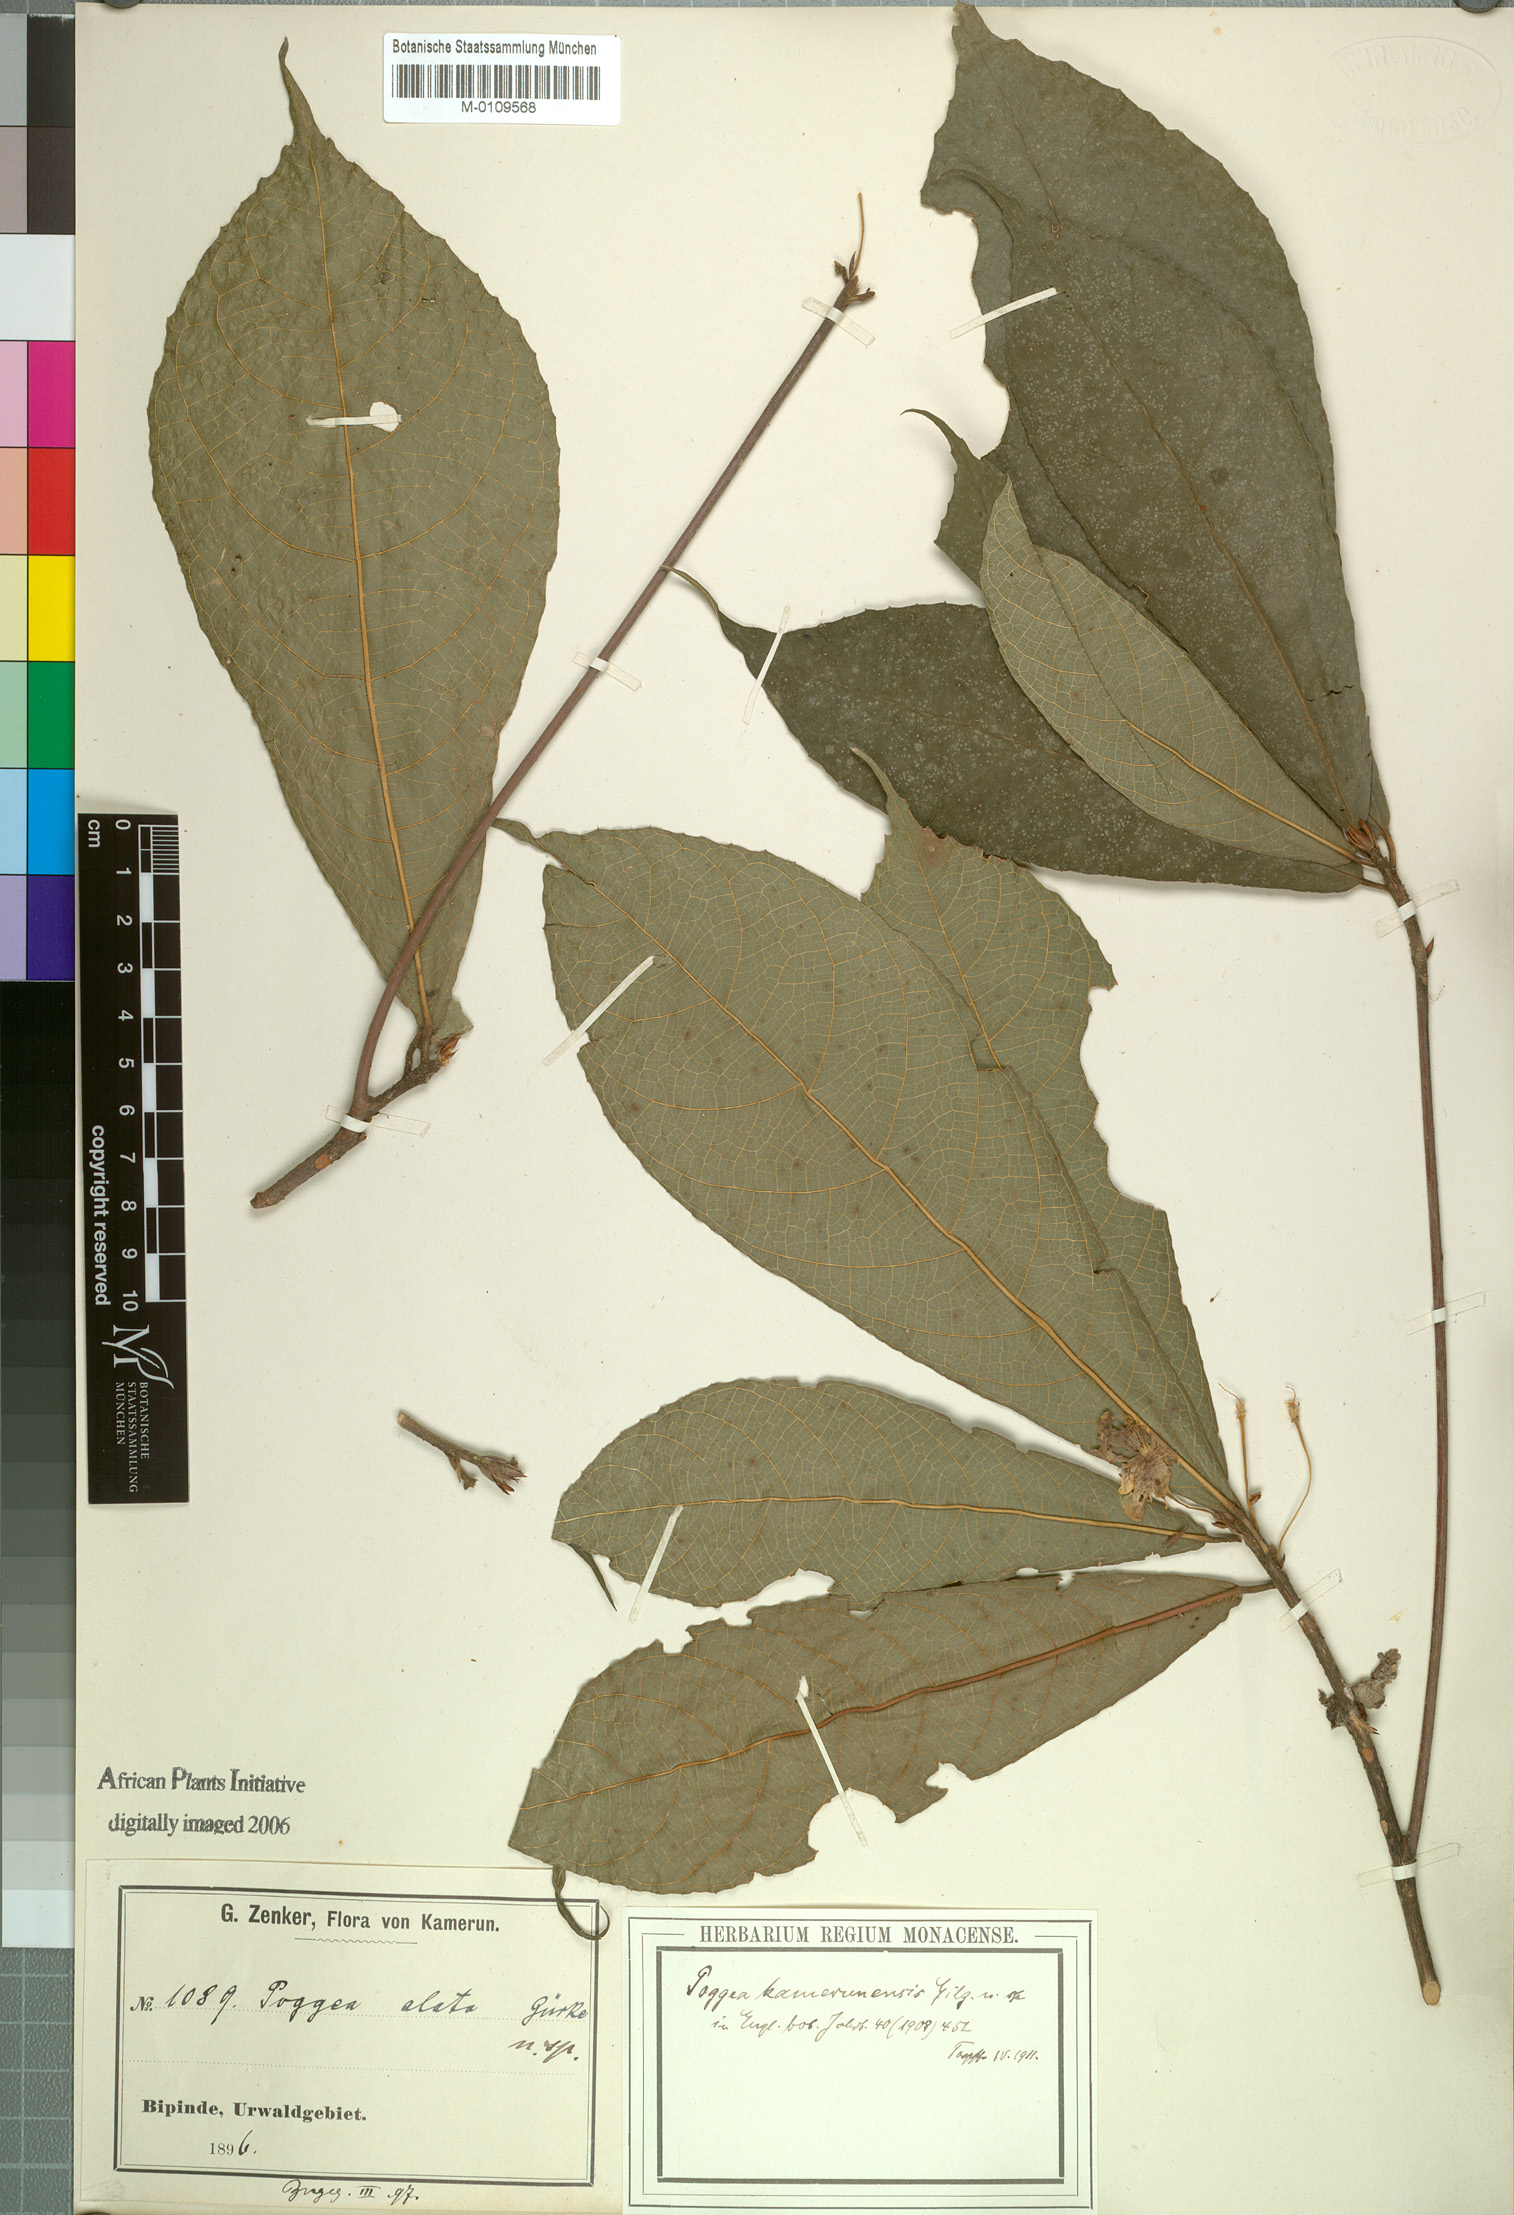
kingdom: Plantae
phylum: Tracheophyta
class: Magnoliopsida
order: Malpighiales
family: Achariaceae
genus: Poggea
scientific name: Poggea alata
